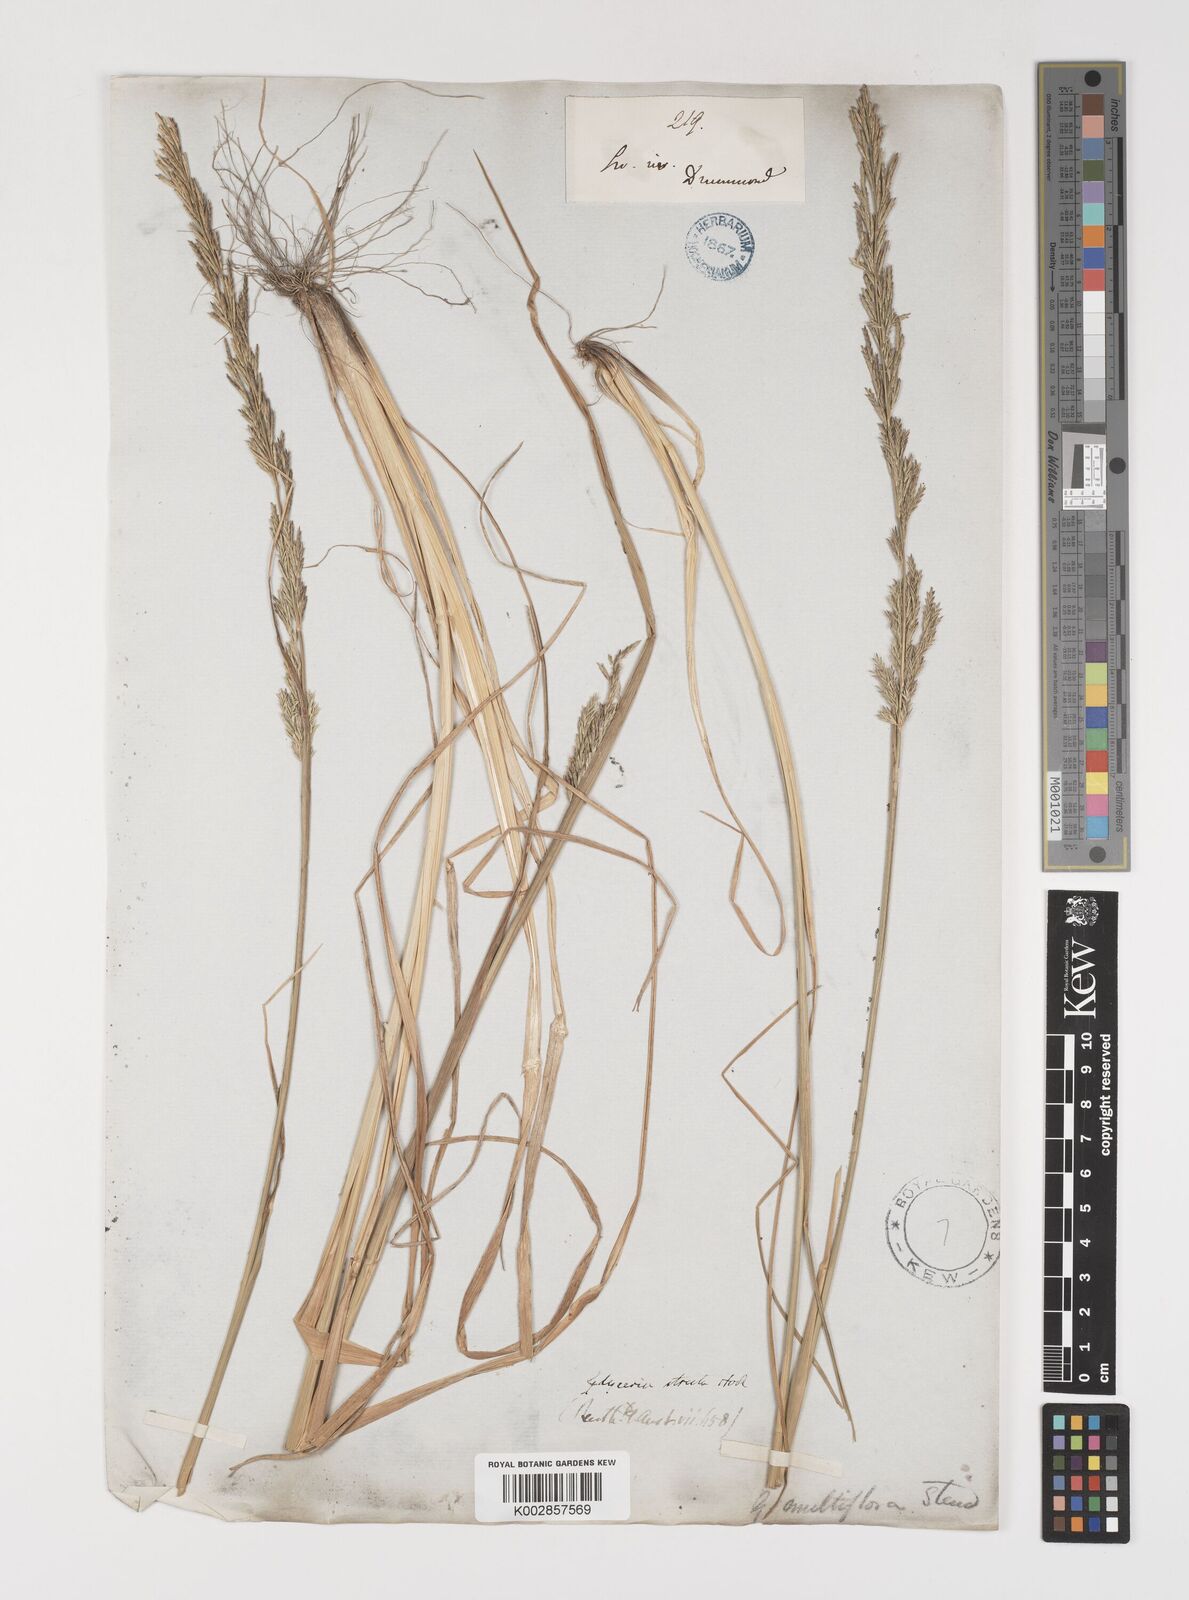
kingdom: Plantae
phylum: Tracheophyta
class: Liliopsida
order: Poales
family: Poaceae
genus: Puccinellia
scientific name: Puccinellia stricta
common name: Australian saltmarsh grass
